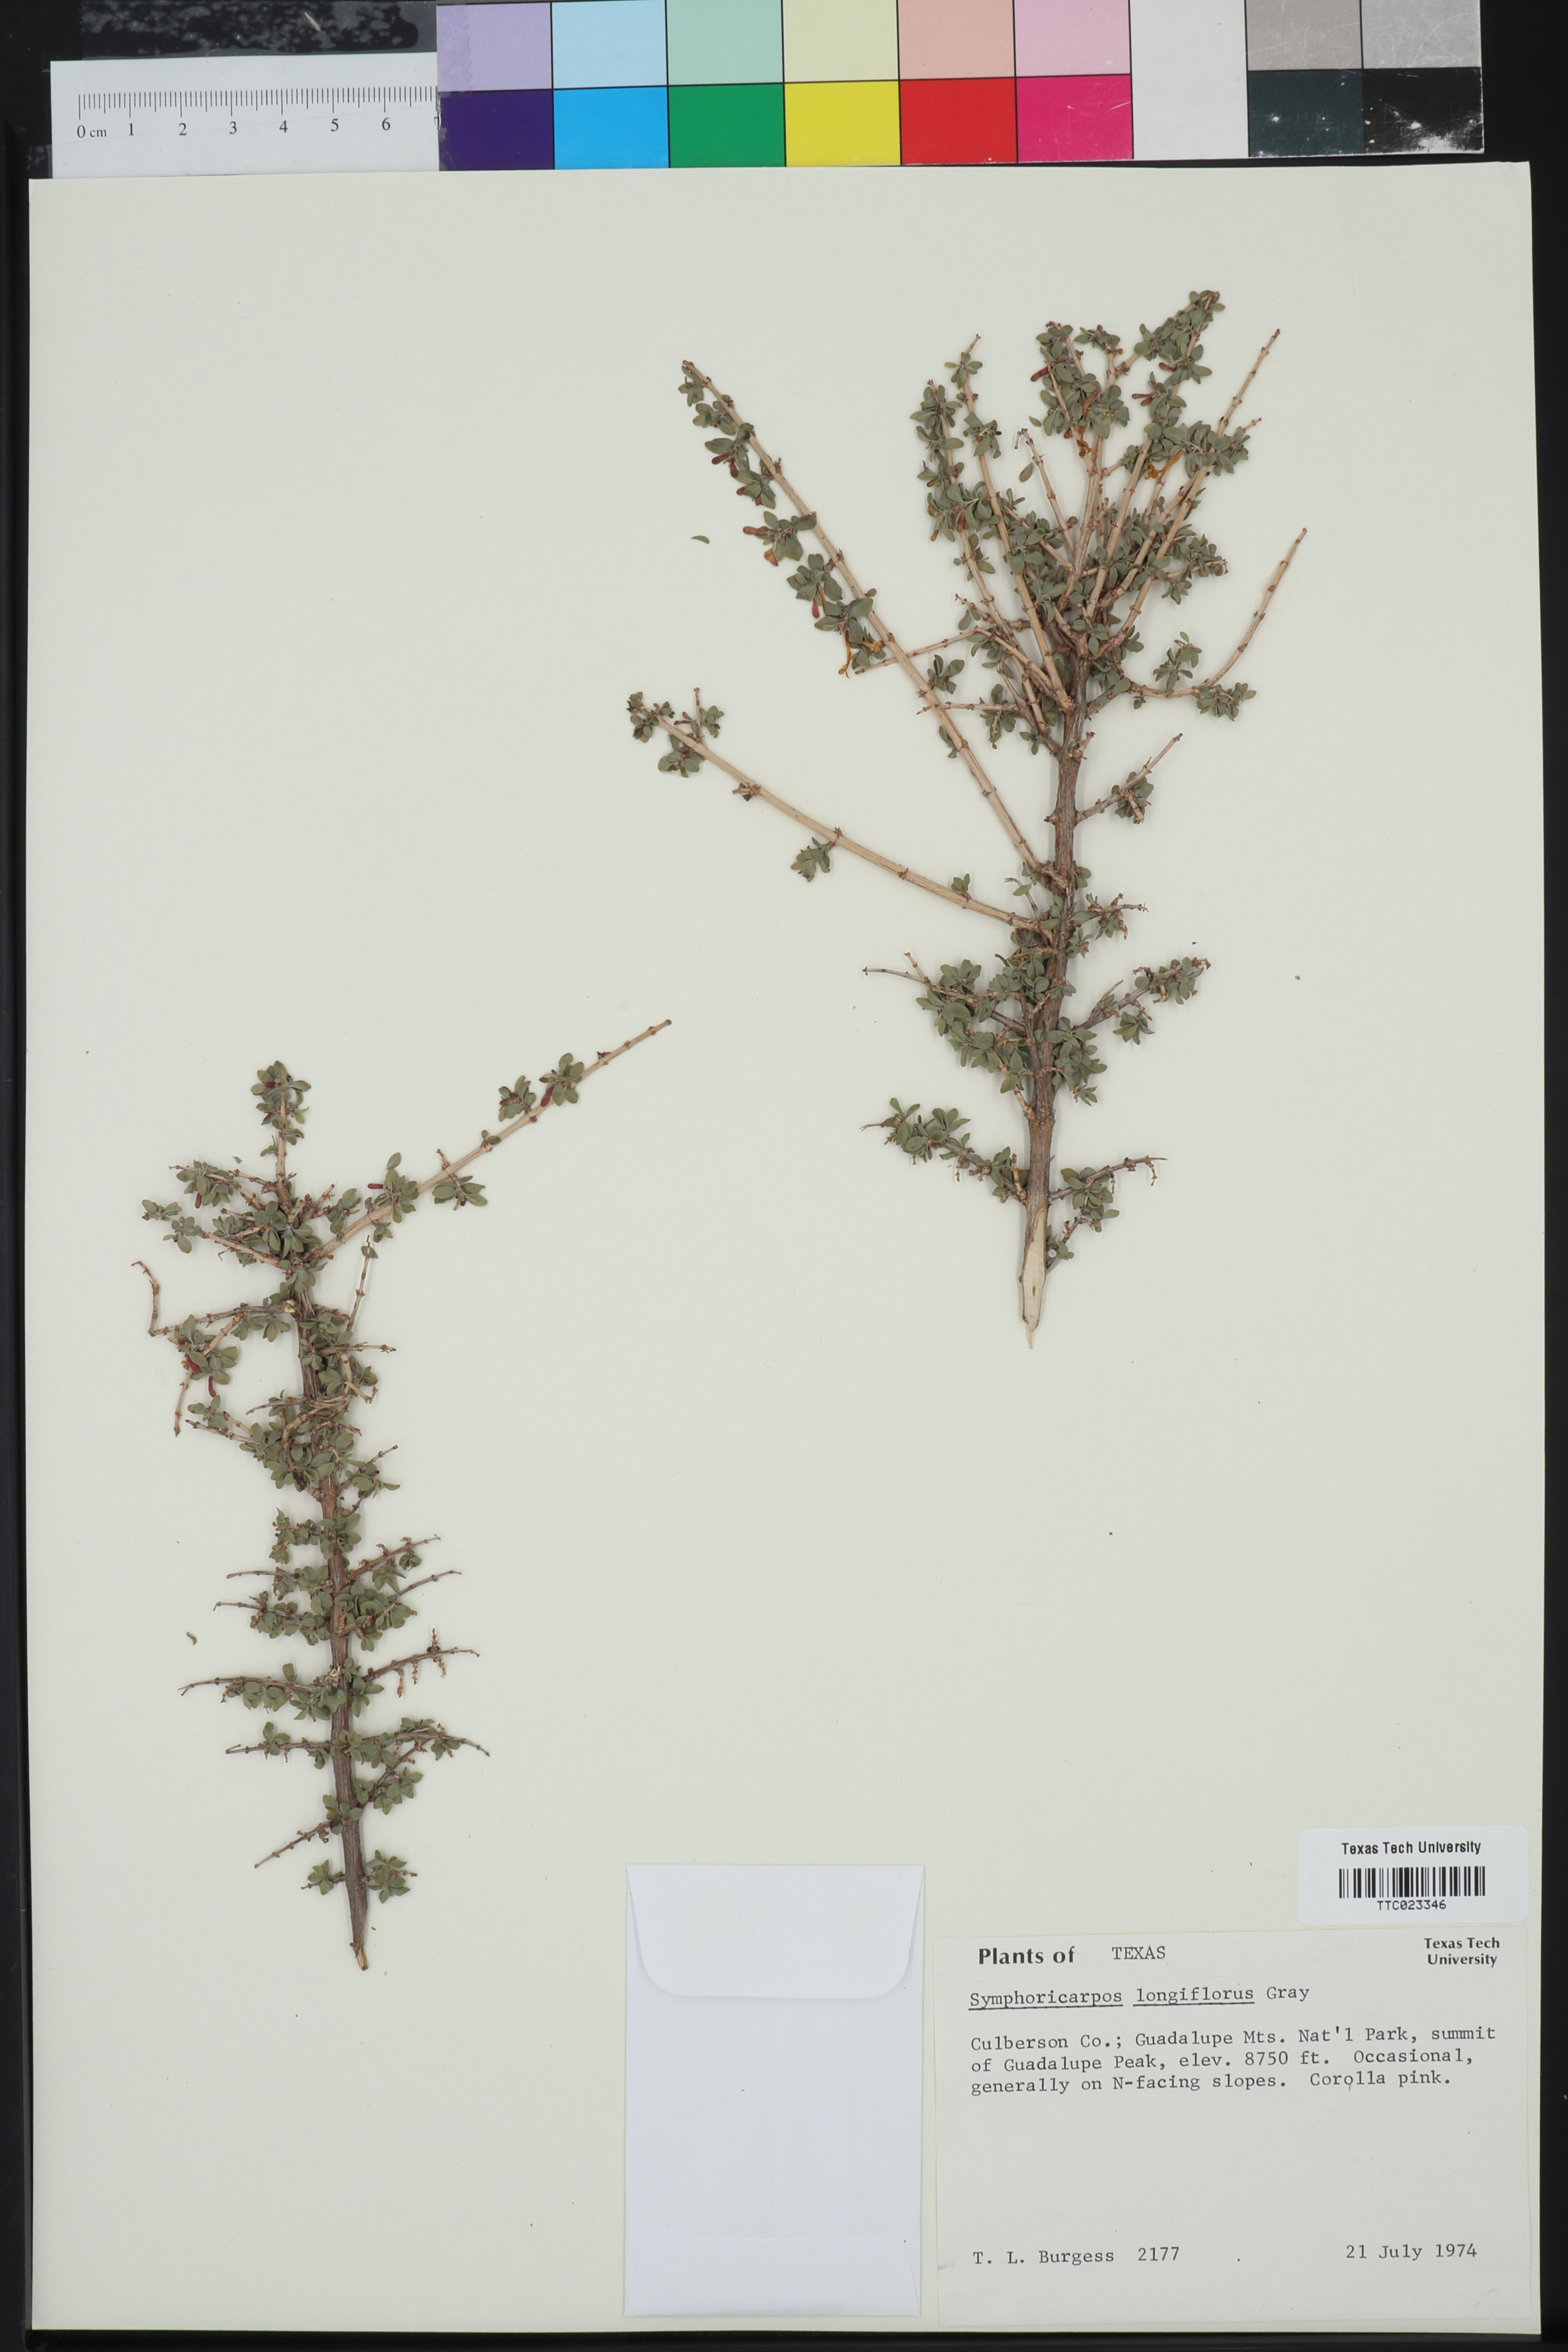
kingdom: Plantae
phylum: Tracheophyta
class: Magnoliopsida
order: Dipsacales
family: Caprifoliaceae
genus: Symphoricarpos
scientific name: Symphoricarpos longiflorus
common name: Fragrant snowberry
